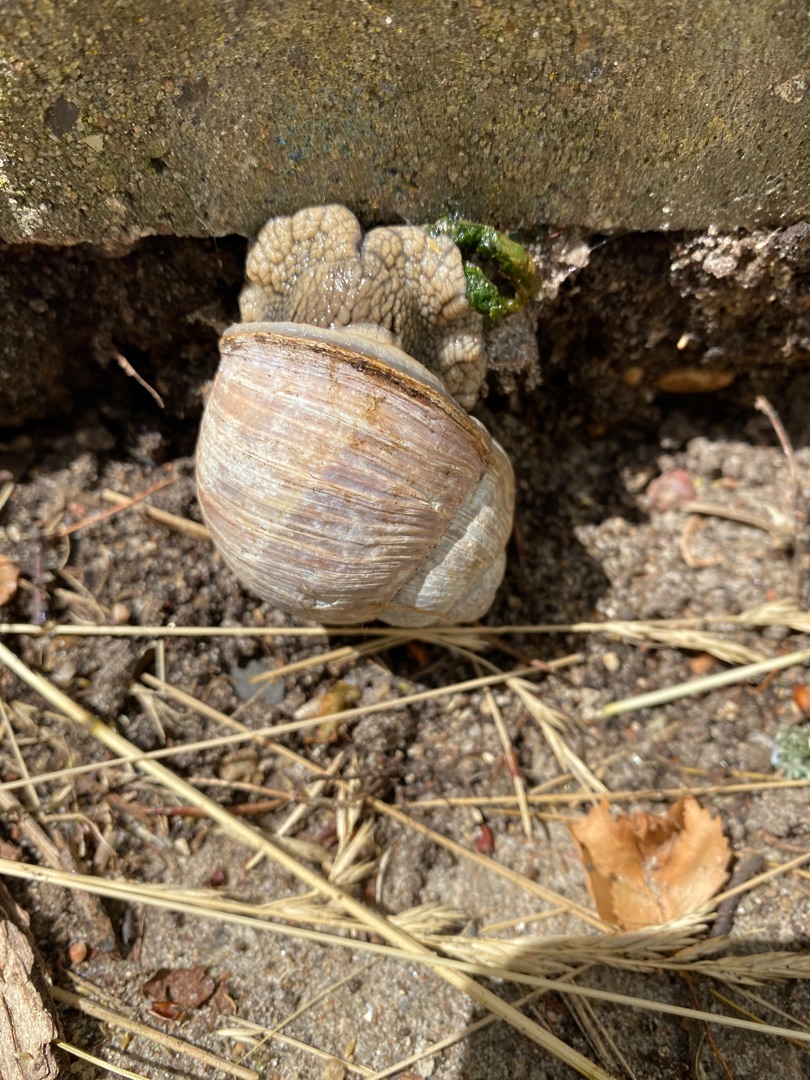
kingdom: Animalia
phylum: Mollusca
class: Gastropoda
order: Stylommatophora
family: Helicidae
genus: Helix
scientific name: Helix pomatia
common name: Vinbjergsnegl
